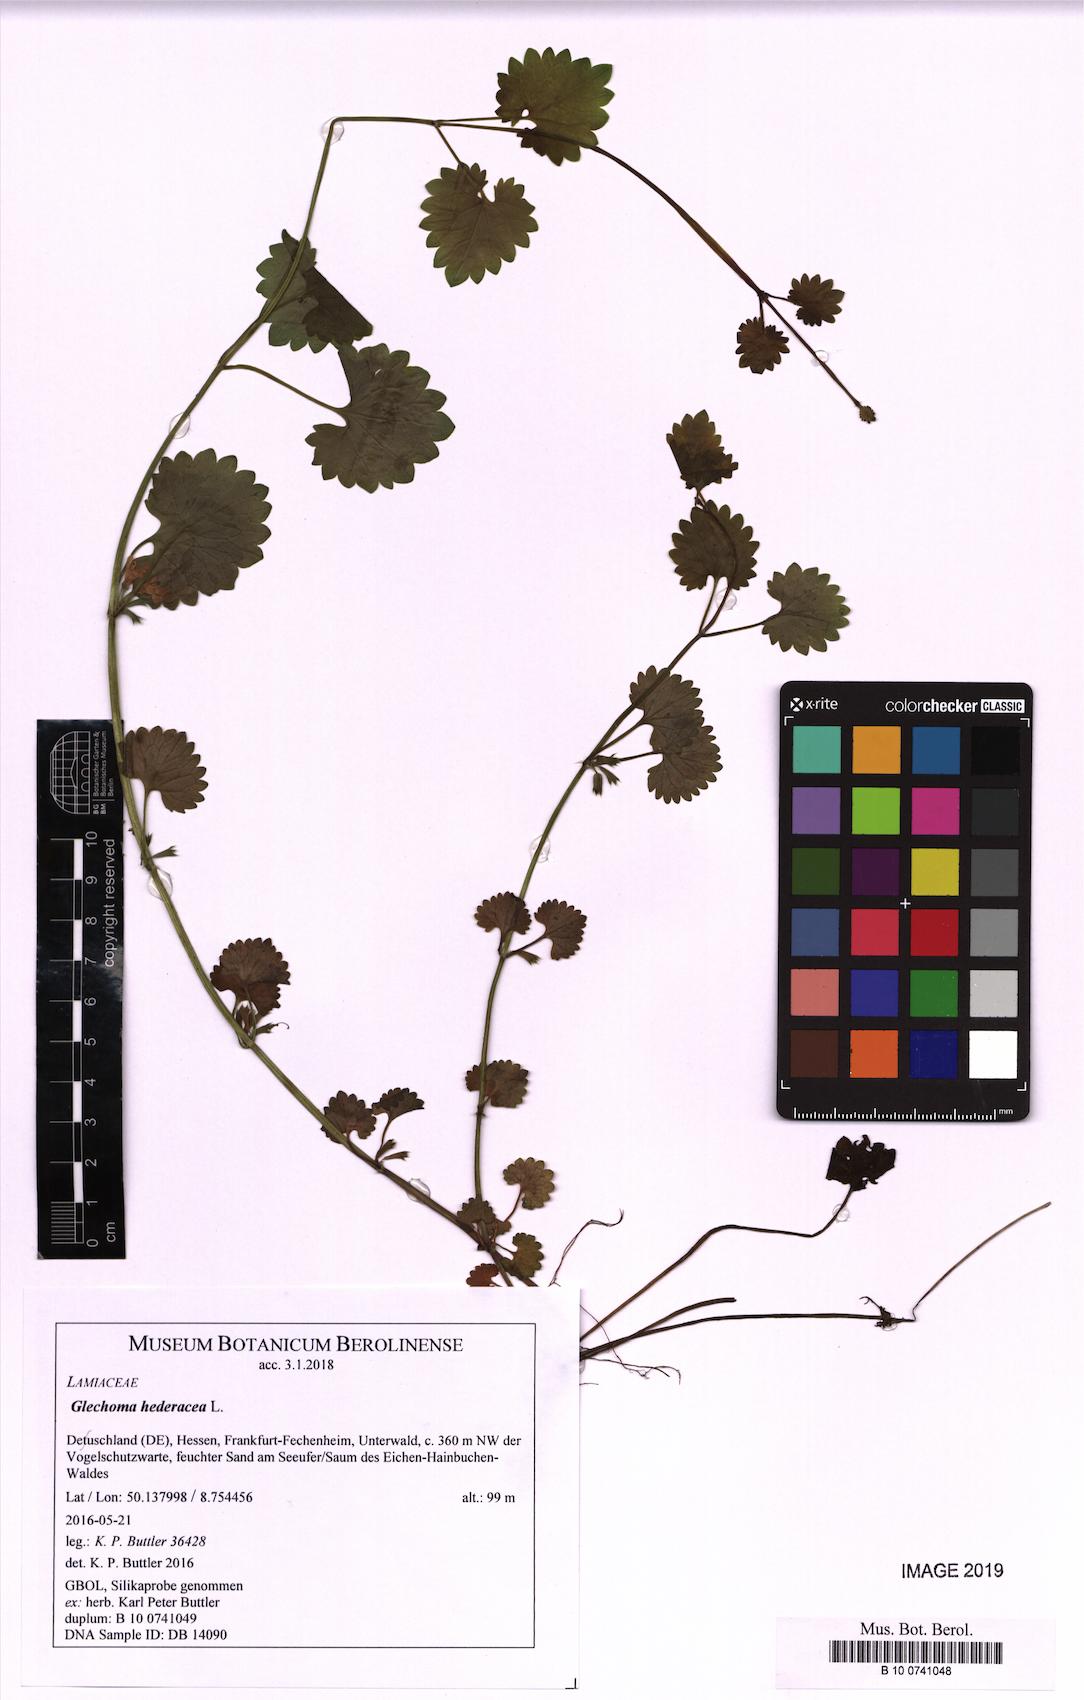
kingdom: Plantae
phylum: Tracheophyta
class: Magnoliopsida
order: Lamiales
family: Lamiaceae
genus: Glechoma
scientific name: Glechoma hederacea
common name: Ground ivy
